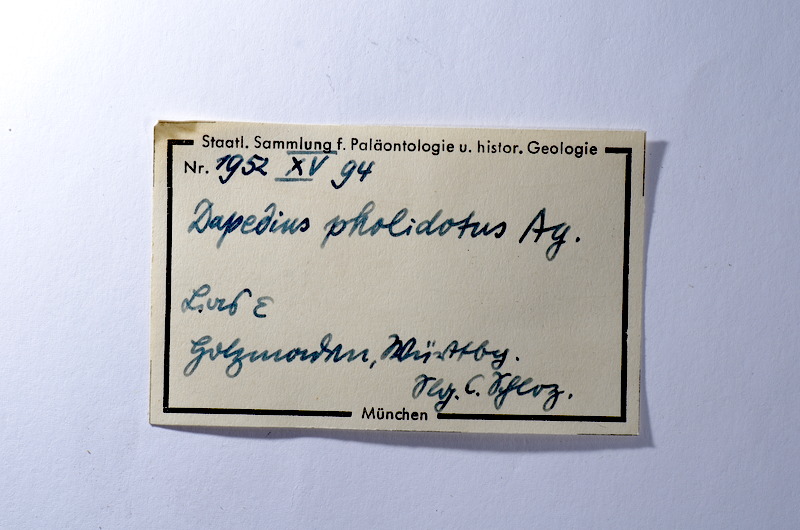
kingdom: Animalia
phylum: Chordata
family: Dapediidae
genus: Dapedium
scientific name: Dapedium pholidotum
